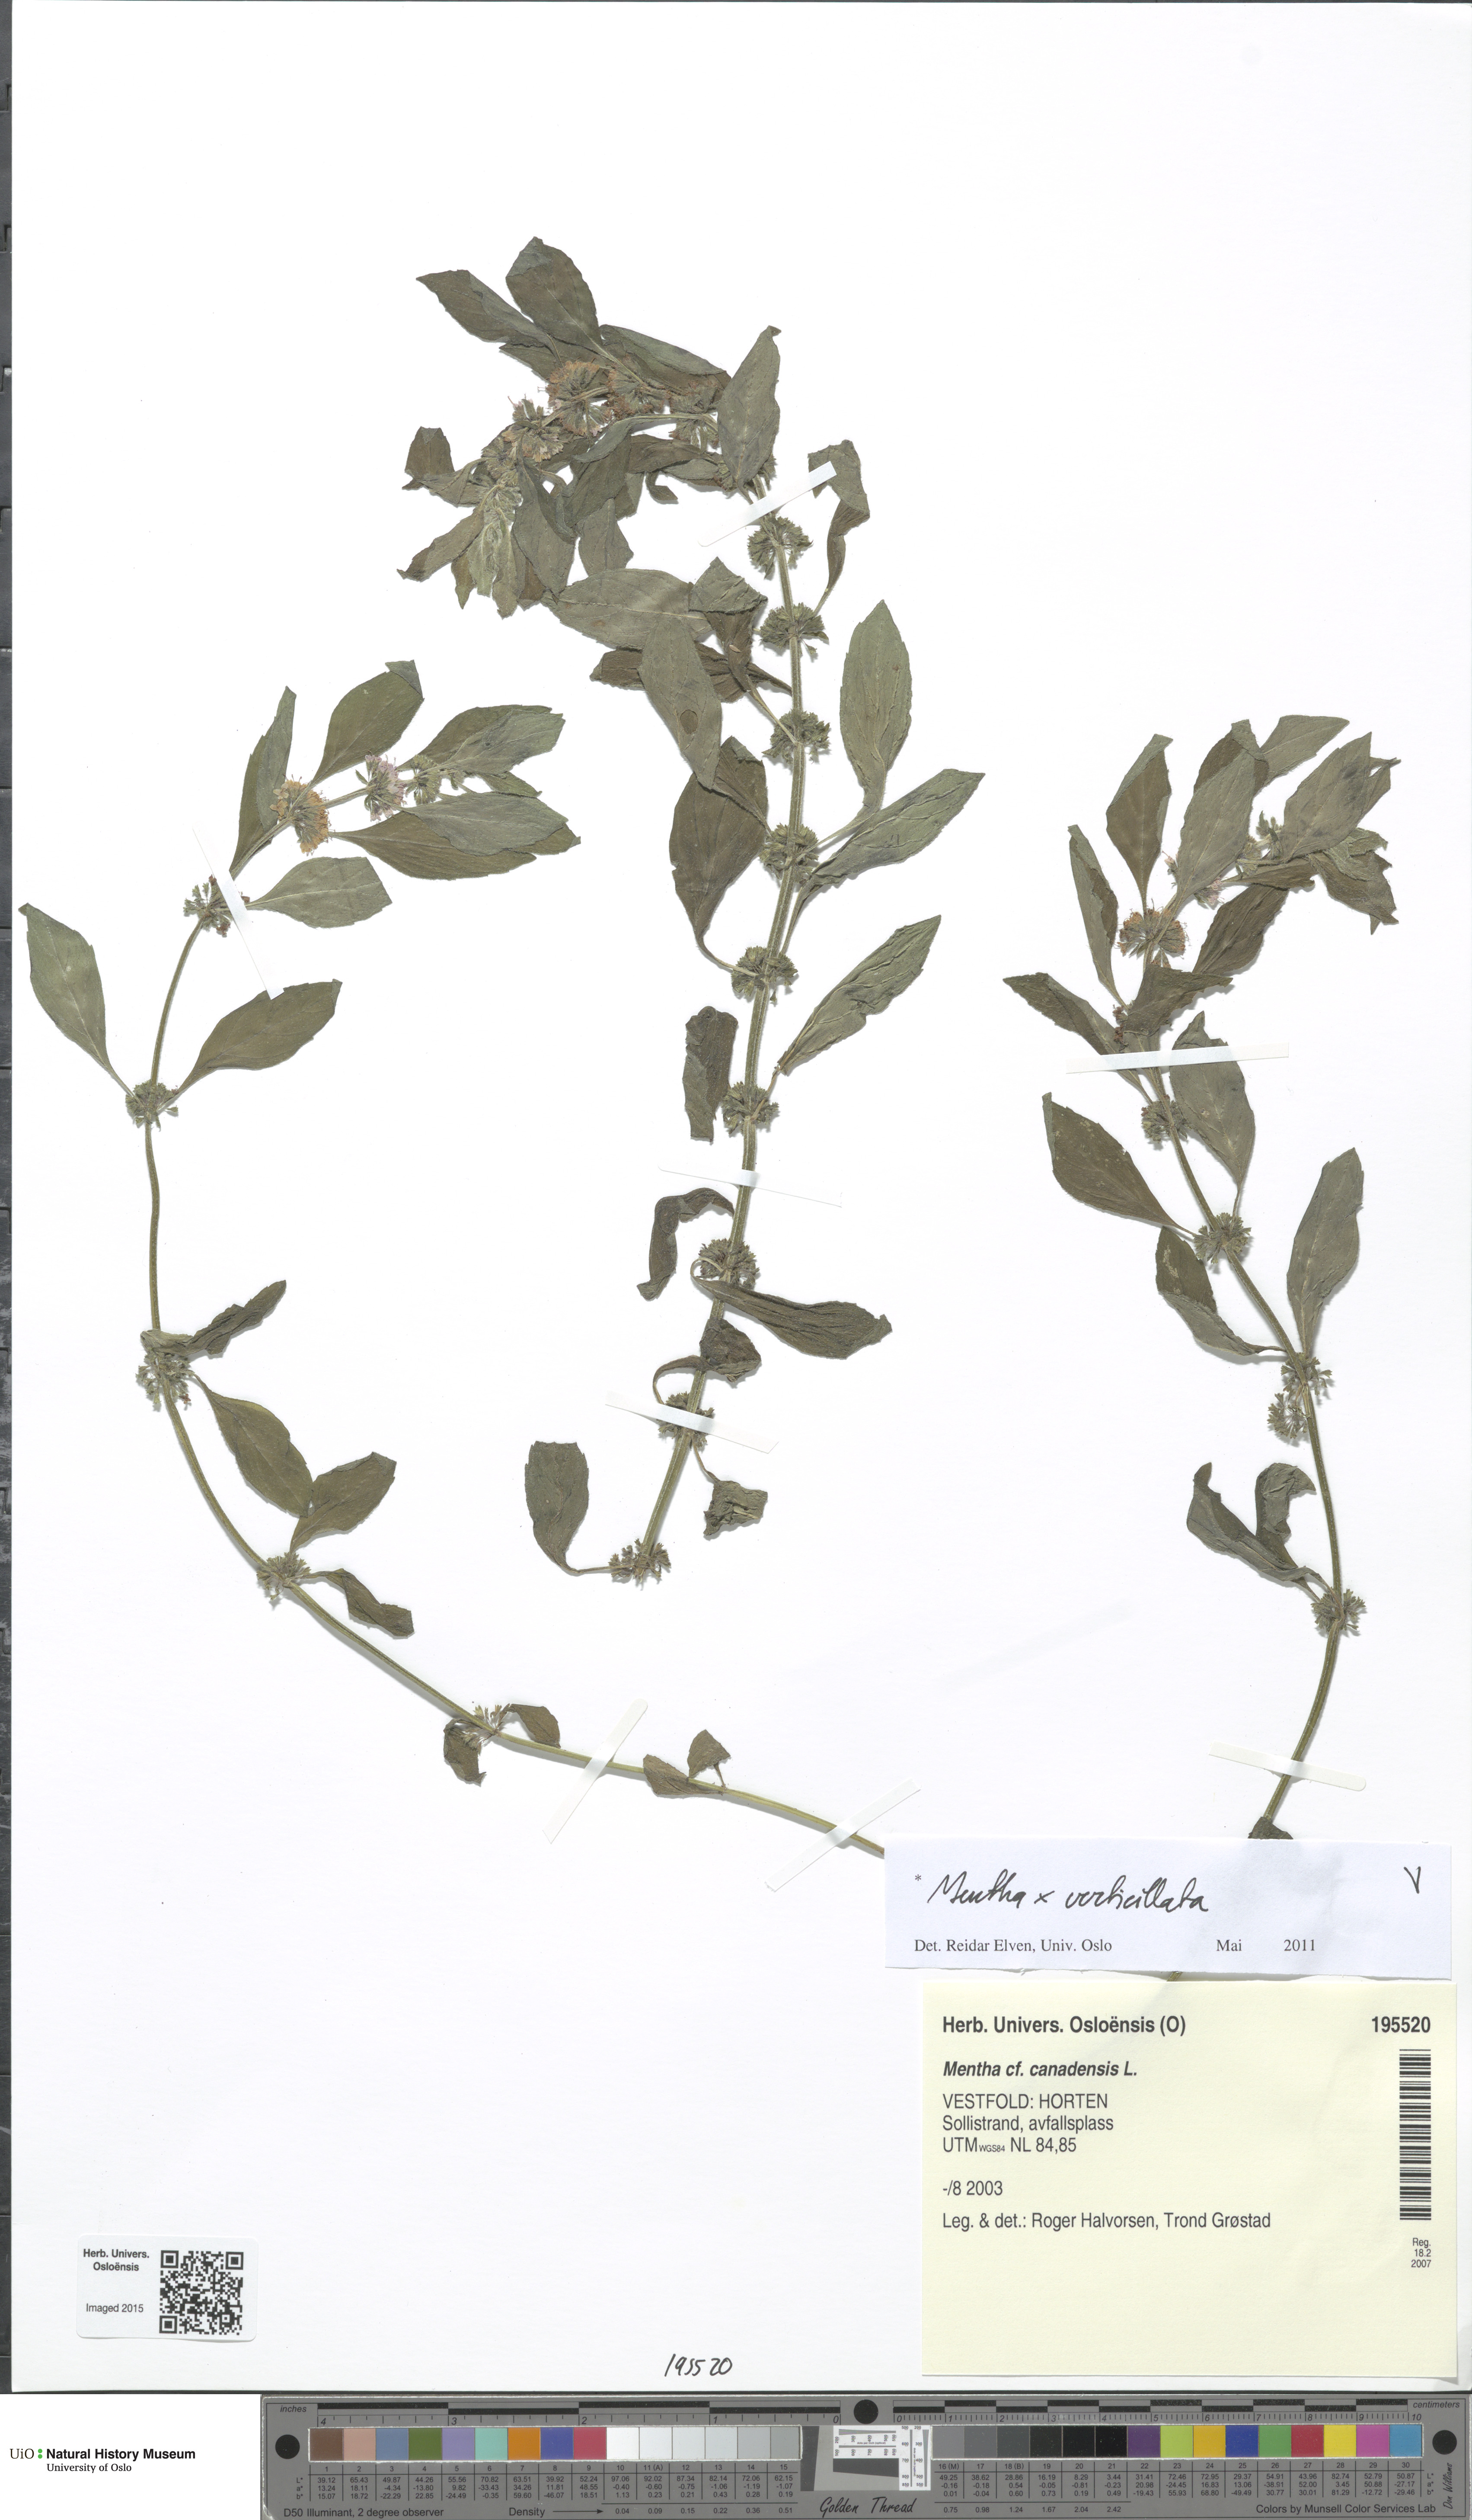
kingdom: Plantae
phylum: Tracheophyta
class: Magnoliopsida
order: Lamiales
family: Lamiaceae
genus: Mentha
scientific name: Mentha verticillata
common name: Mint
